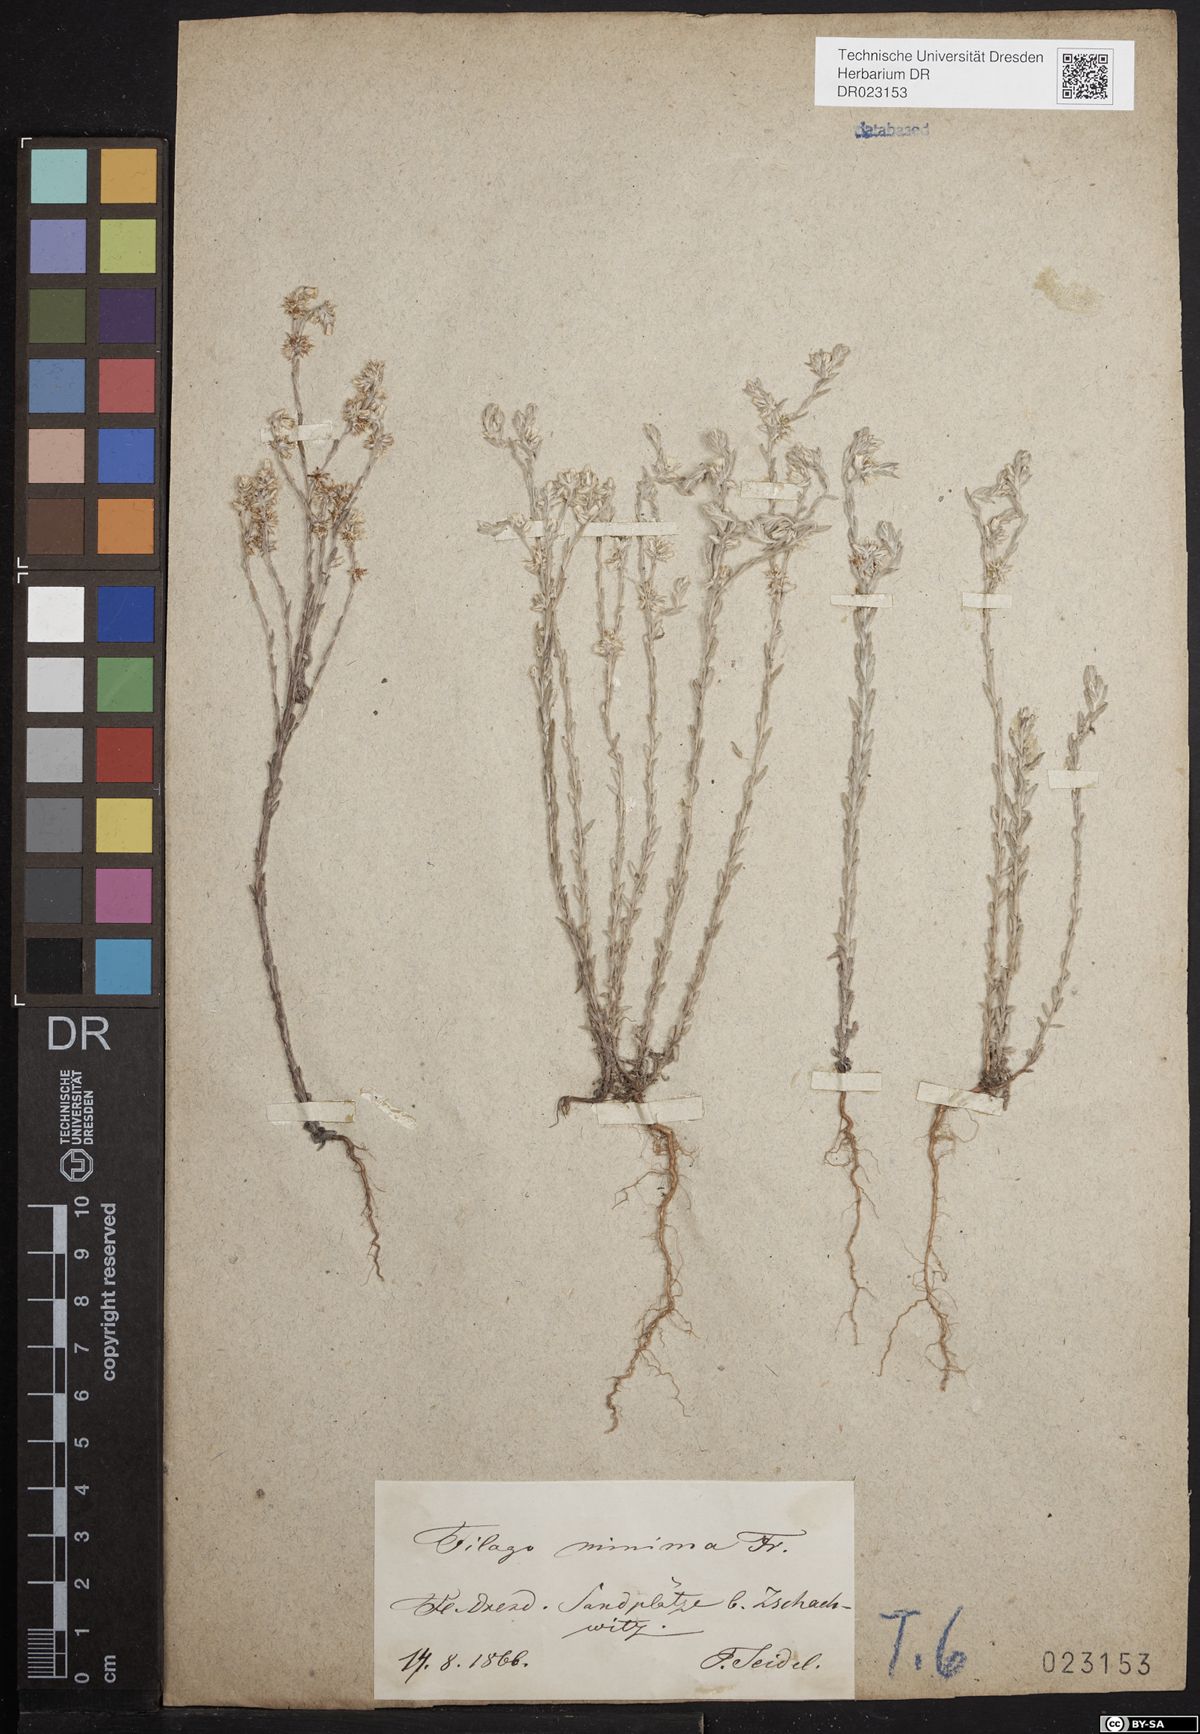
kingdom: Plantae
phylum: Tracheophyta
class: Magnoliopsida
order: Asterales
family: Asteraceae
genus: Logfia
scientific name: Logfia minima
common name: Little cottonrose
